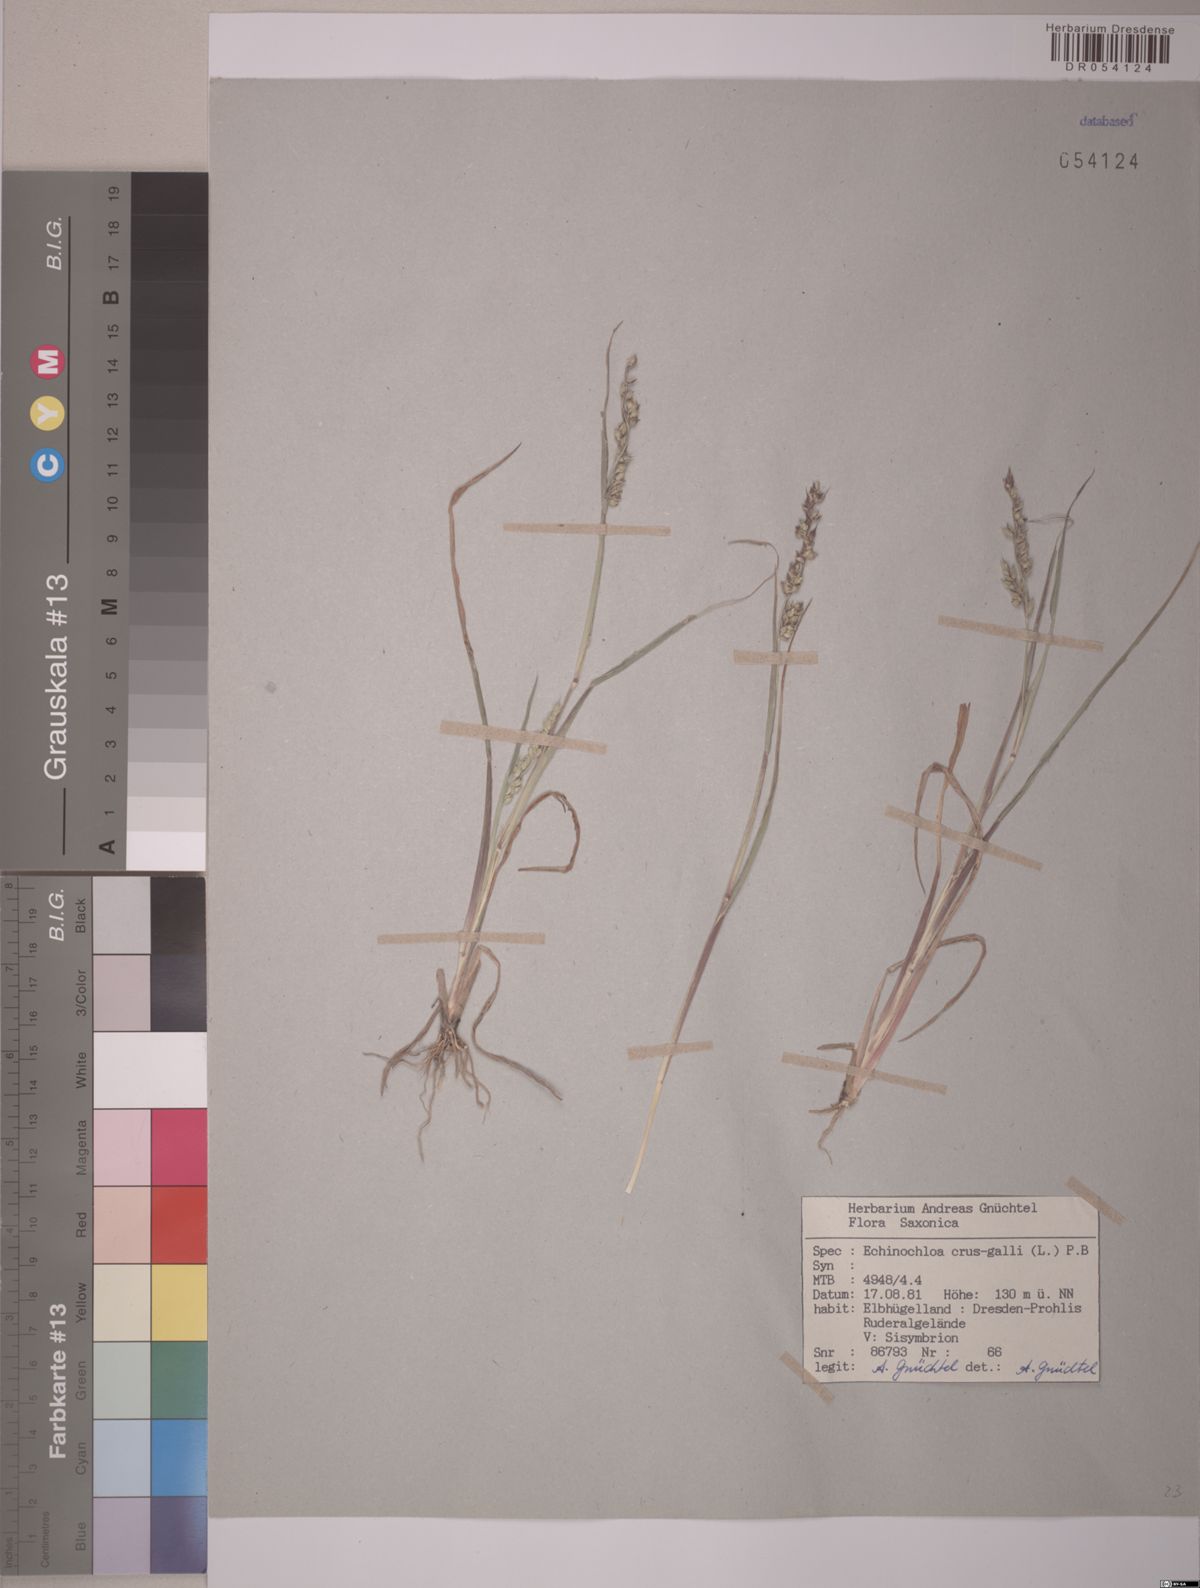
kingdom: Plantae
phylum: Tracheophyta
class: Liliopsida
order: Poales
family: Poaceae
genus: Echinochloa
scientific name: Echinochloa crus-galli
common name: Cockspur
